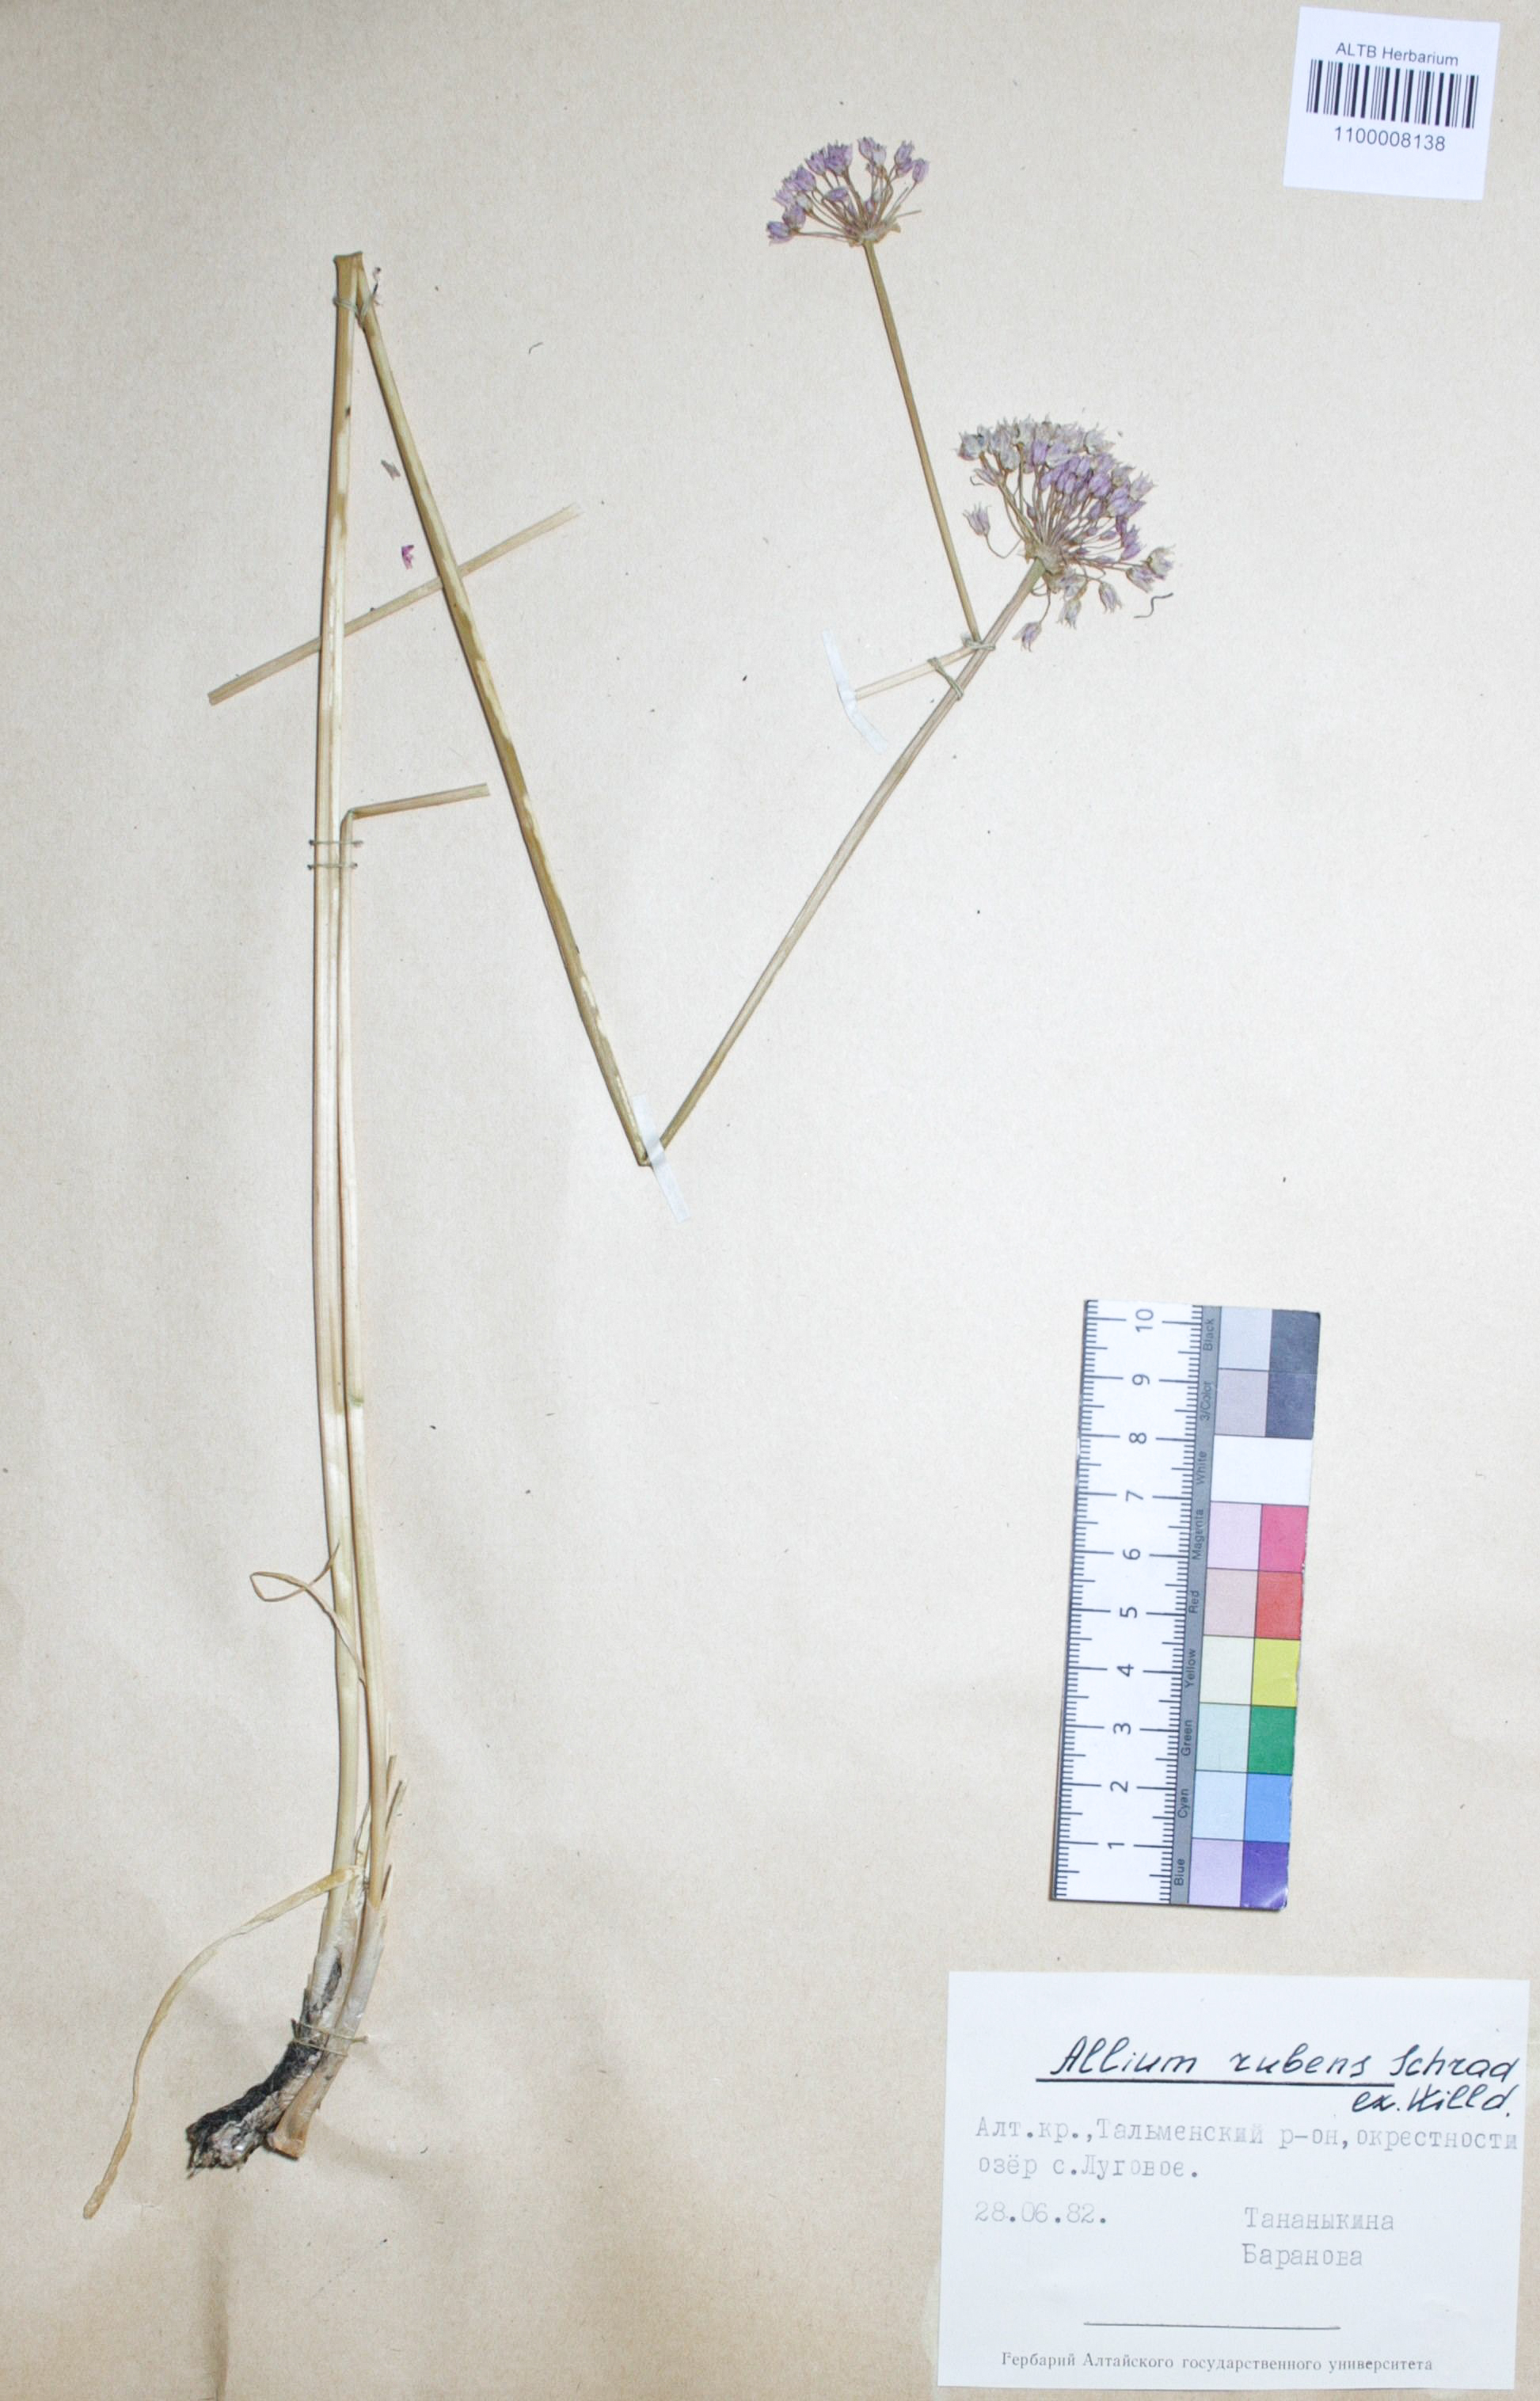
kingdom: Plantae
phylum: Tracheophyta
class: Liliopsida
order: Asparagales
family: Amaryllidaceae
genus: Allium
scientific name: Allium rubens
